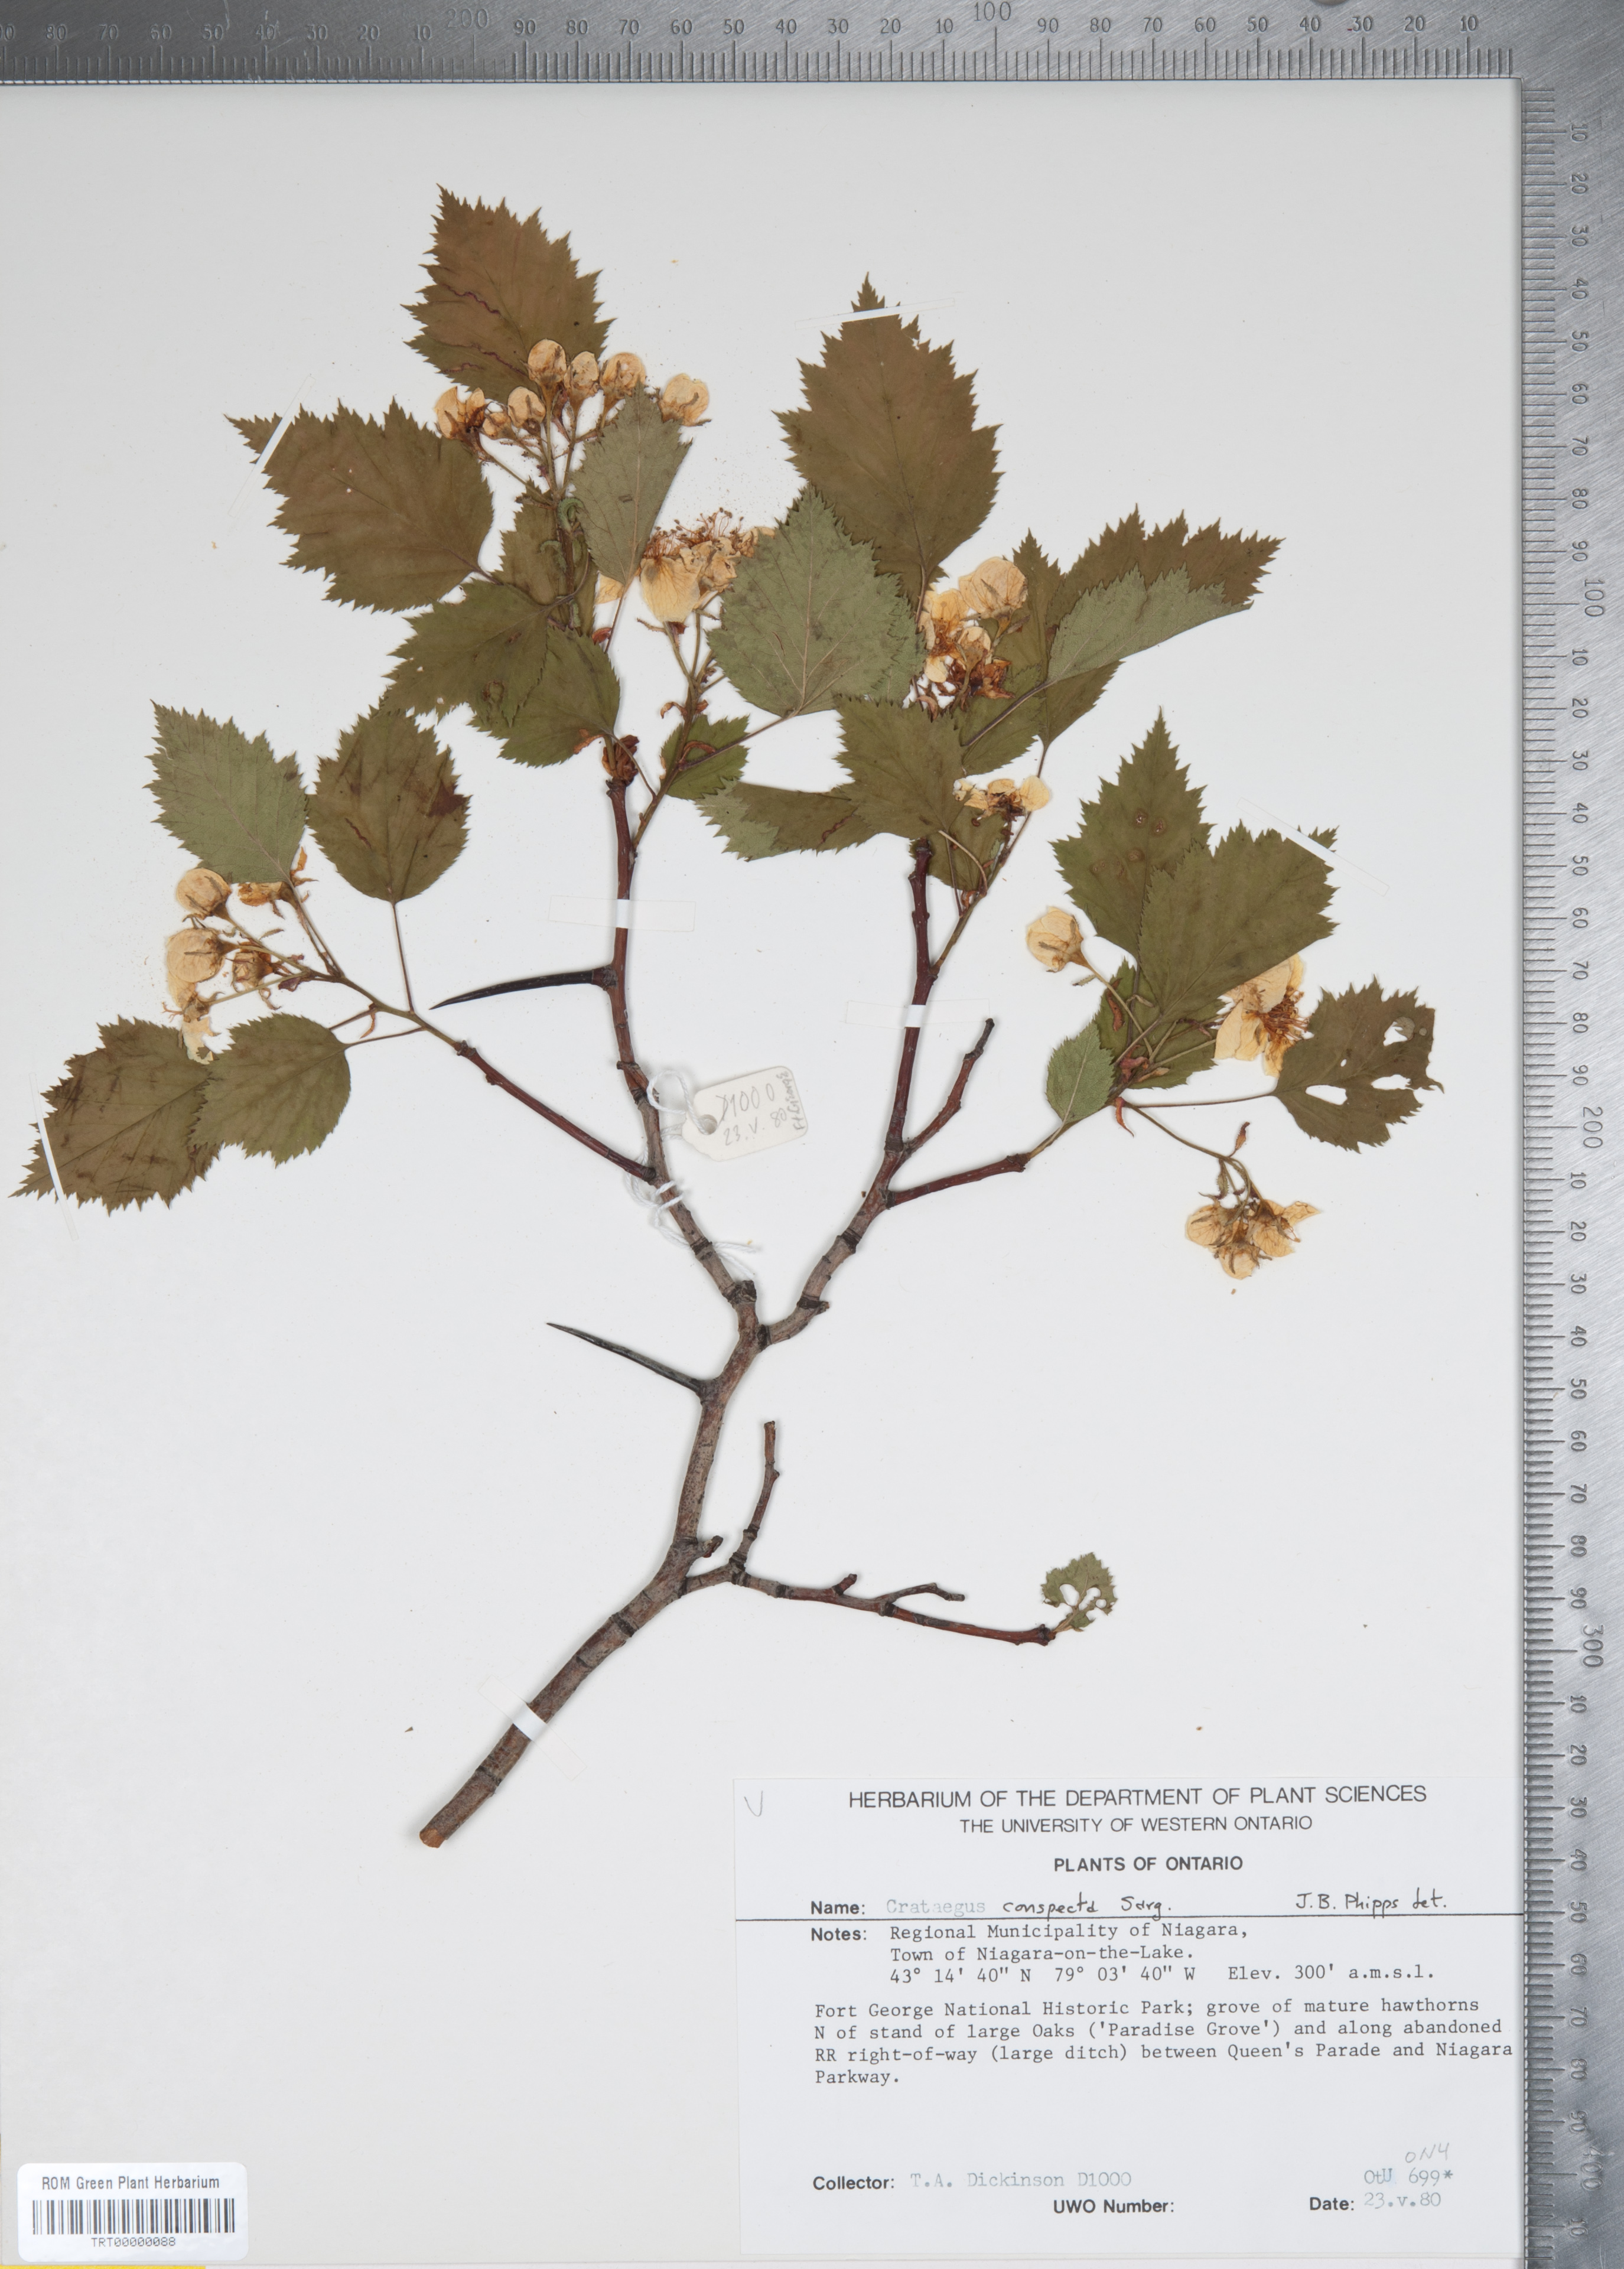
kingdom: Plantae
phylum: Tracheophyta
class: Magnoliopsida
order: Rosales
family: Rosaceae
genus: Crataegus
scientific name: Crataegus coccinioides
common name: Large-flowered cockspurthorn
